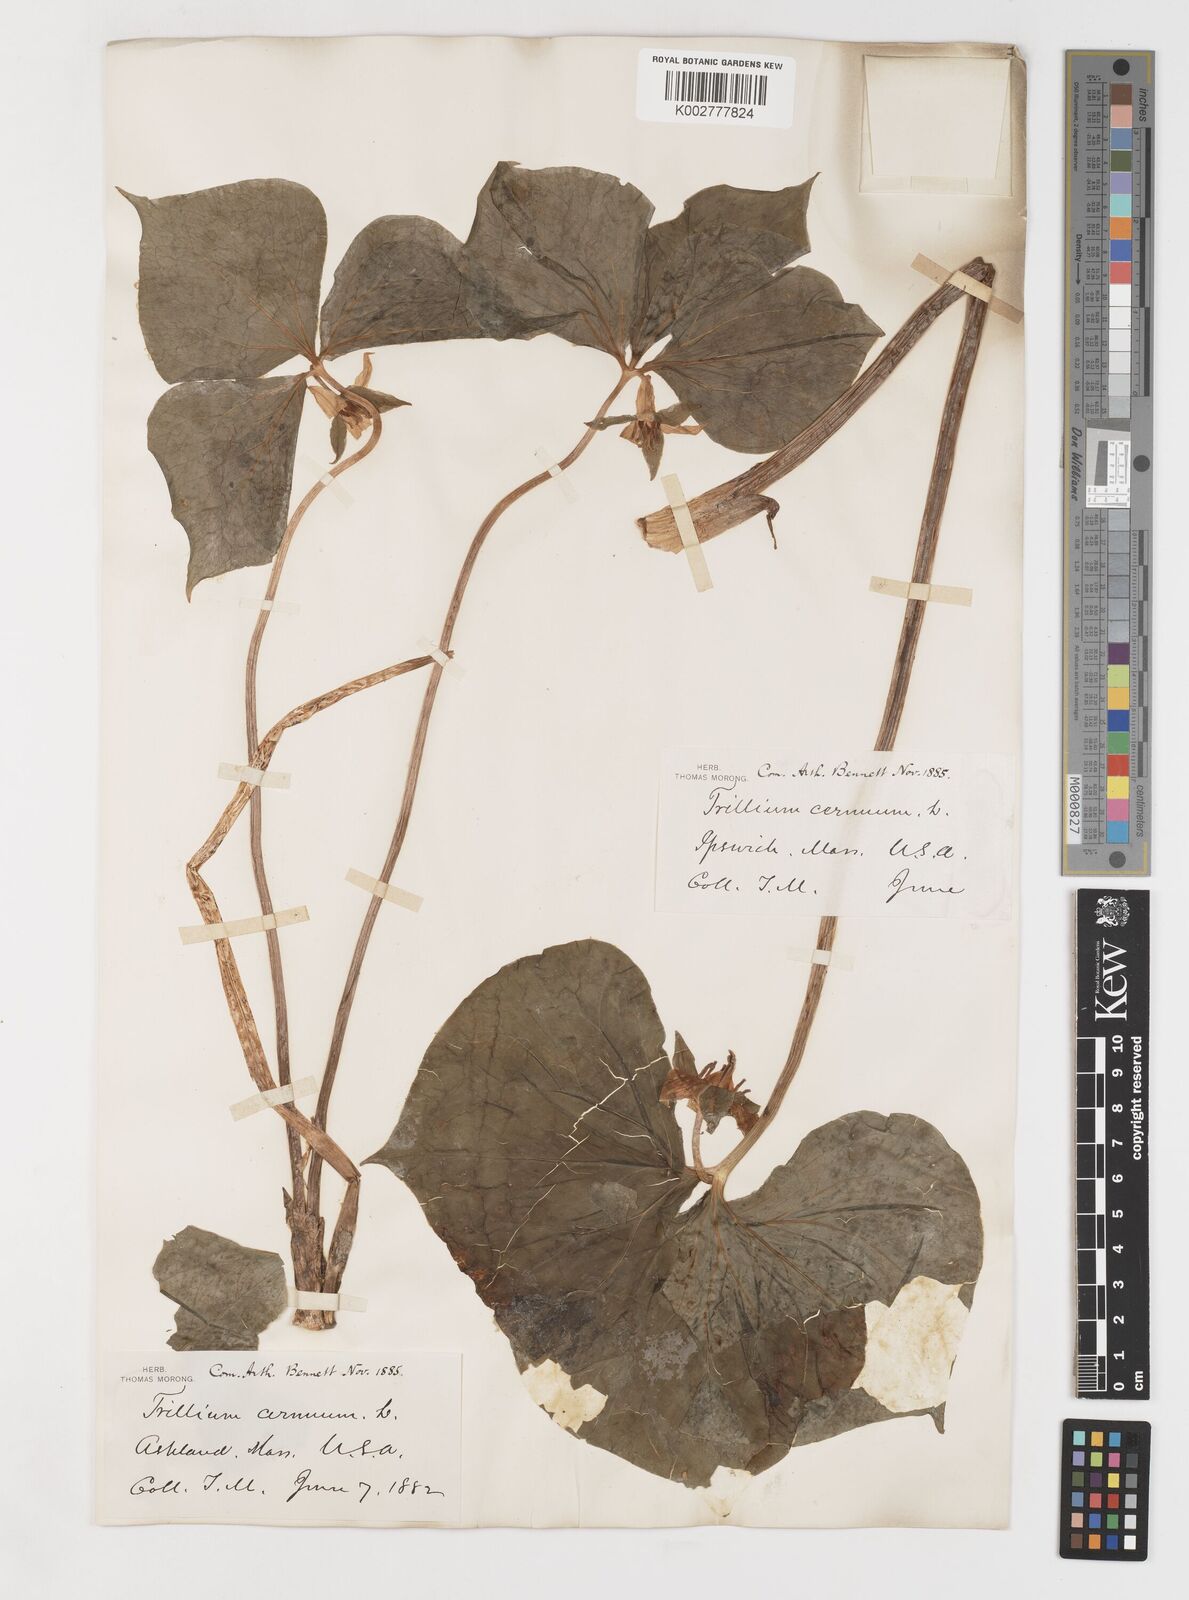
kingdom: Plantae
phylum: Tracheophyta
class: Liliopsida
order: Liliales
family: Melanthiaceae
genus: Trillium
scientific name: Trillium cernuum
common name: Nodding trillium
